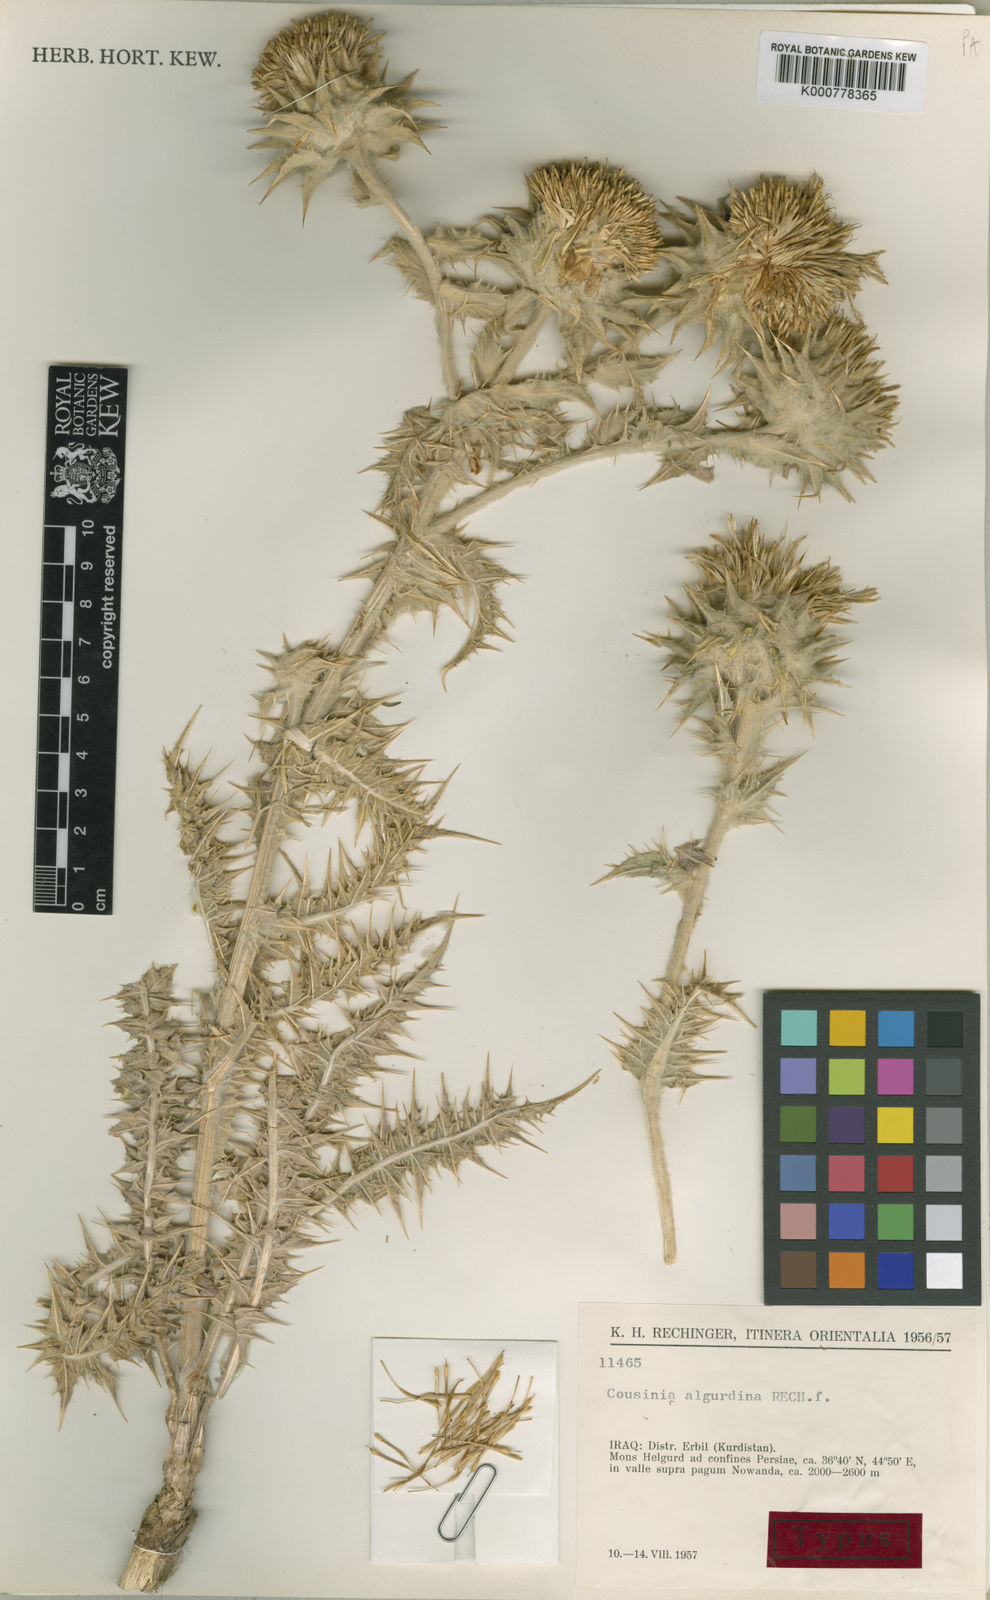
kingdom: Plantae
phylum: Tracheophyta
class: Magnoliopsida
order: Asterales
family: Asteraceae
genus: Cousinia
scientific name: Cousinia algurdina
